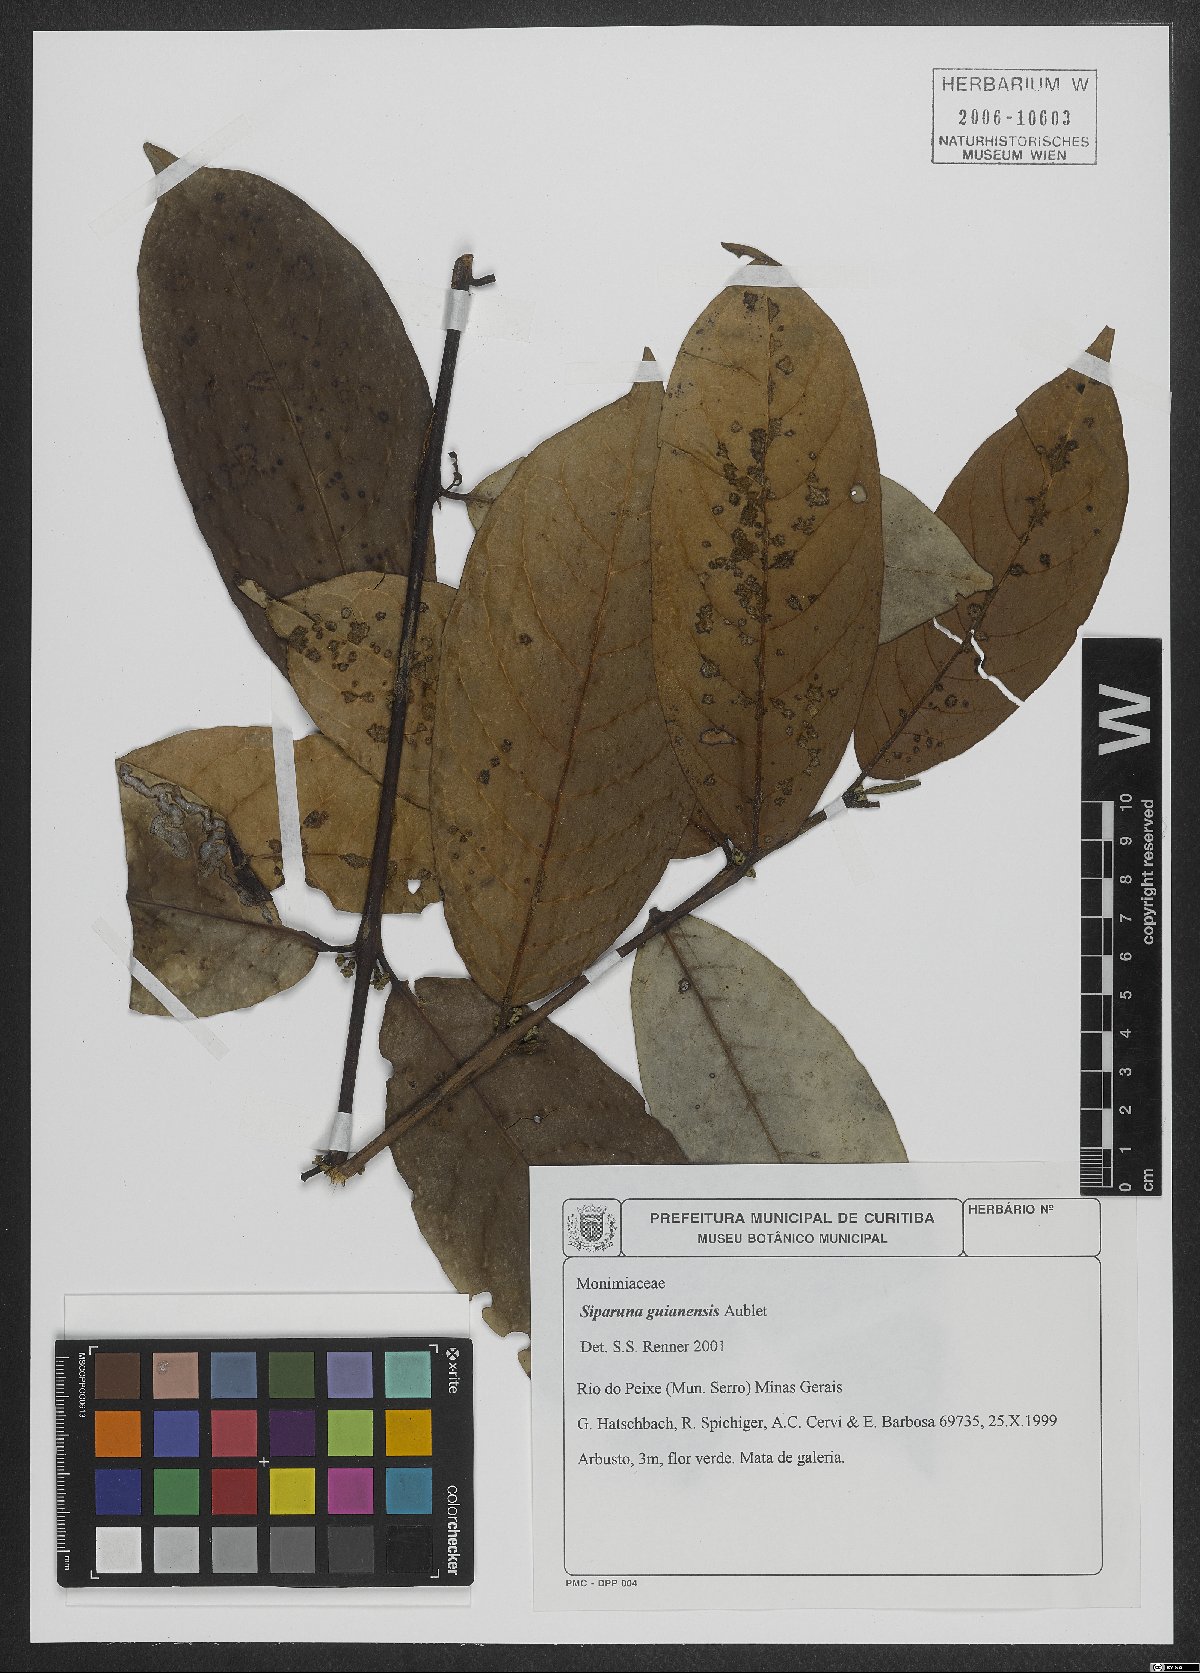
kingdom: Plantae
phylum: Tracheophyta
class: Magnoliopsida
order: Laurales
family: Siparunaceae
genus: Siparuna
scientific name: Siparuna guianensis
